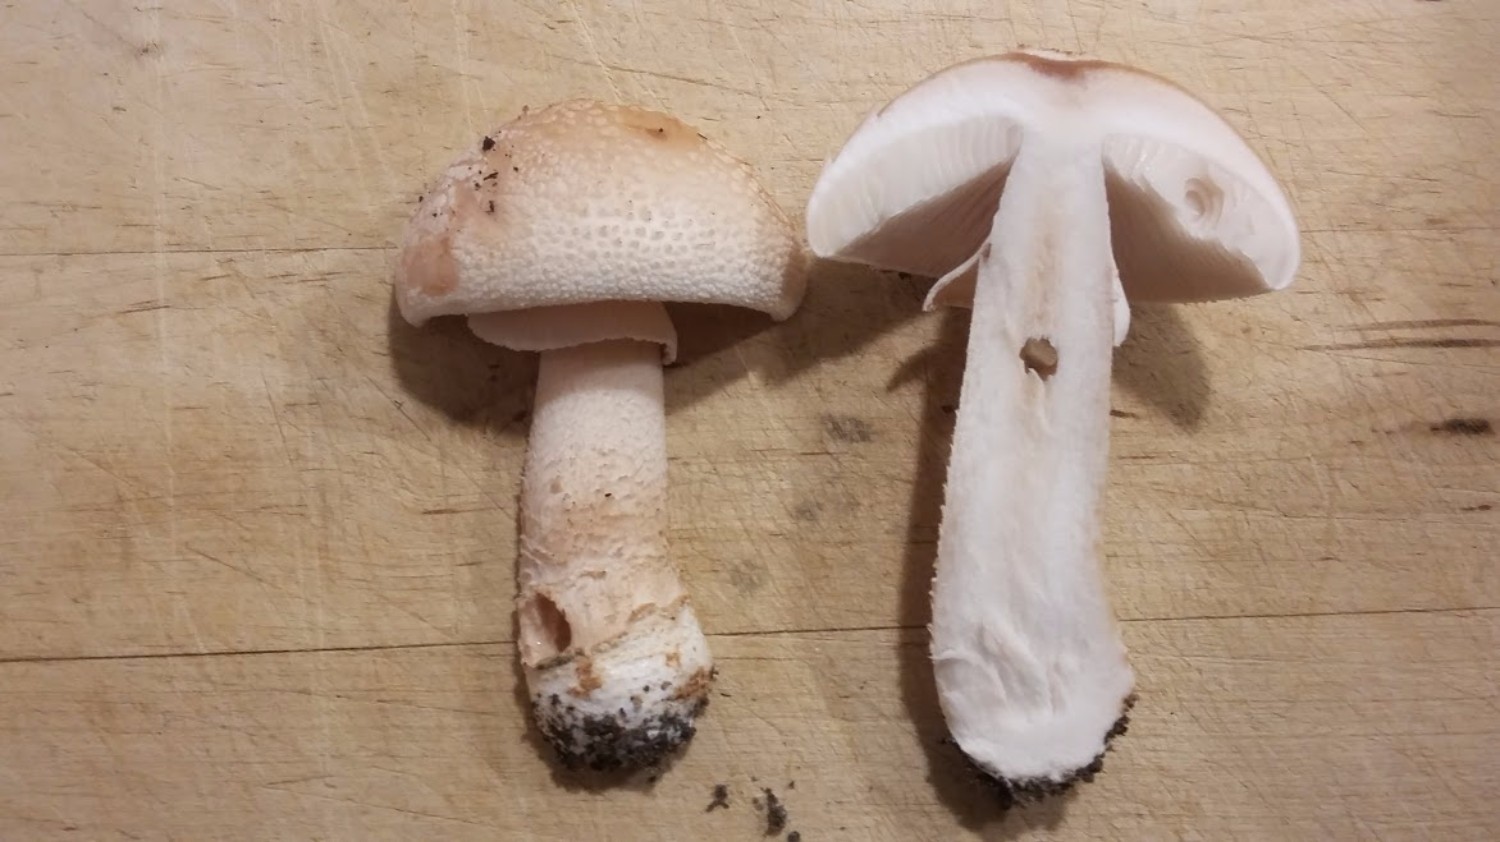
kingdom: Fungi
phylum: Basidiomycota
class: Agaricomycetes
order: Agaricales
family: Amanitaceae
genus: Amanita
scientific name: Amanita rubescens
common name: rødmende fluesvamp
